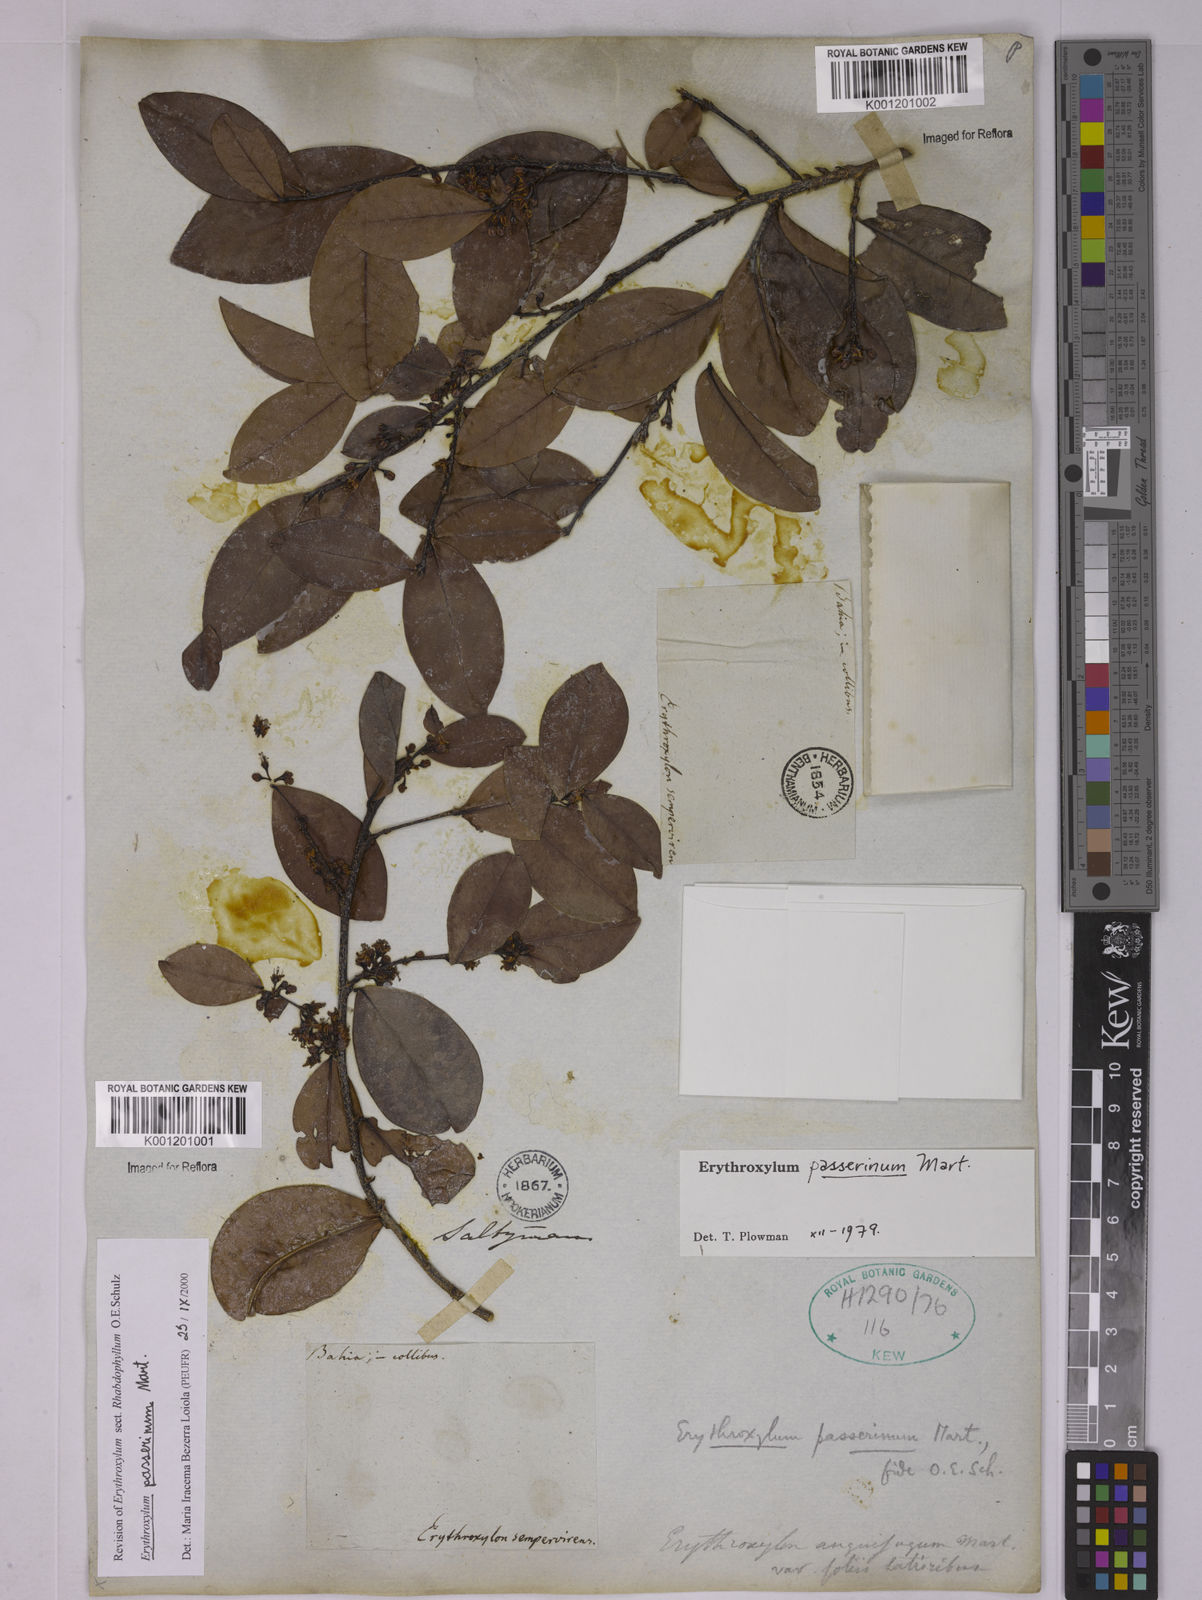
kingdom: Plantae
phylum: Tracheophyta
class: Magnoliopsida
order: Malpighiales
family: Erythroxylaceae
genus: Erythroxylum
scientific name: Erythroxylum passerinum
